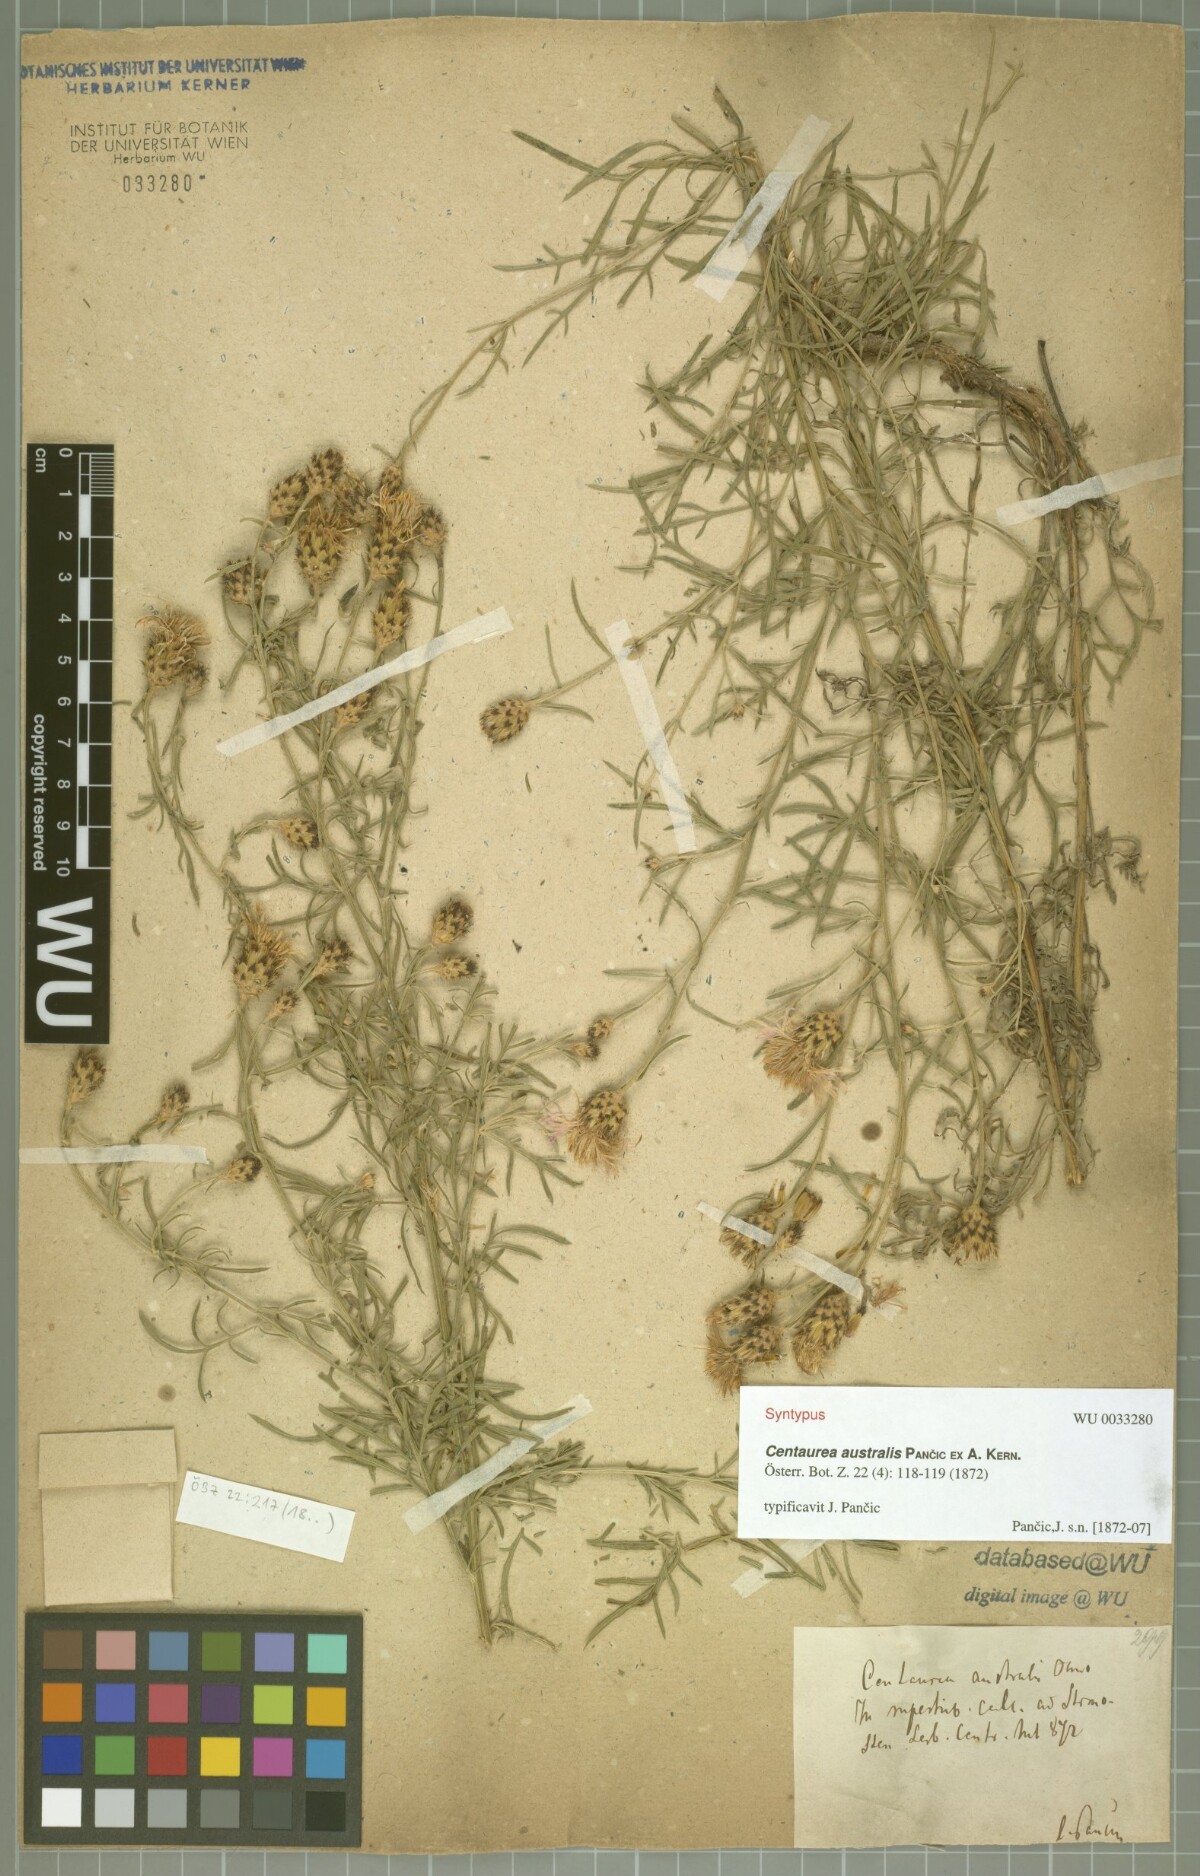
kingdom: Plantae
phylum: Tracheophyta
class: Magnoliopsida
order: Asterales
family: Asteraceae
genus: Centaurea
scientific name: Centaurea australis
